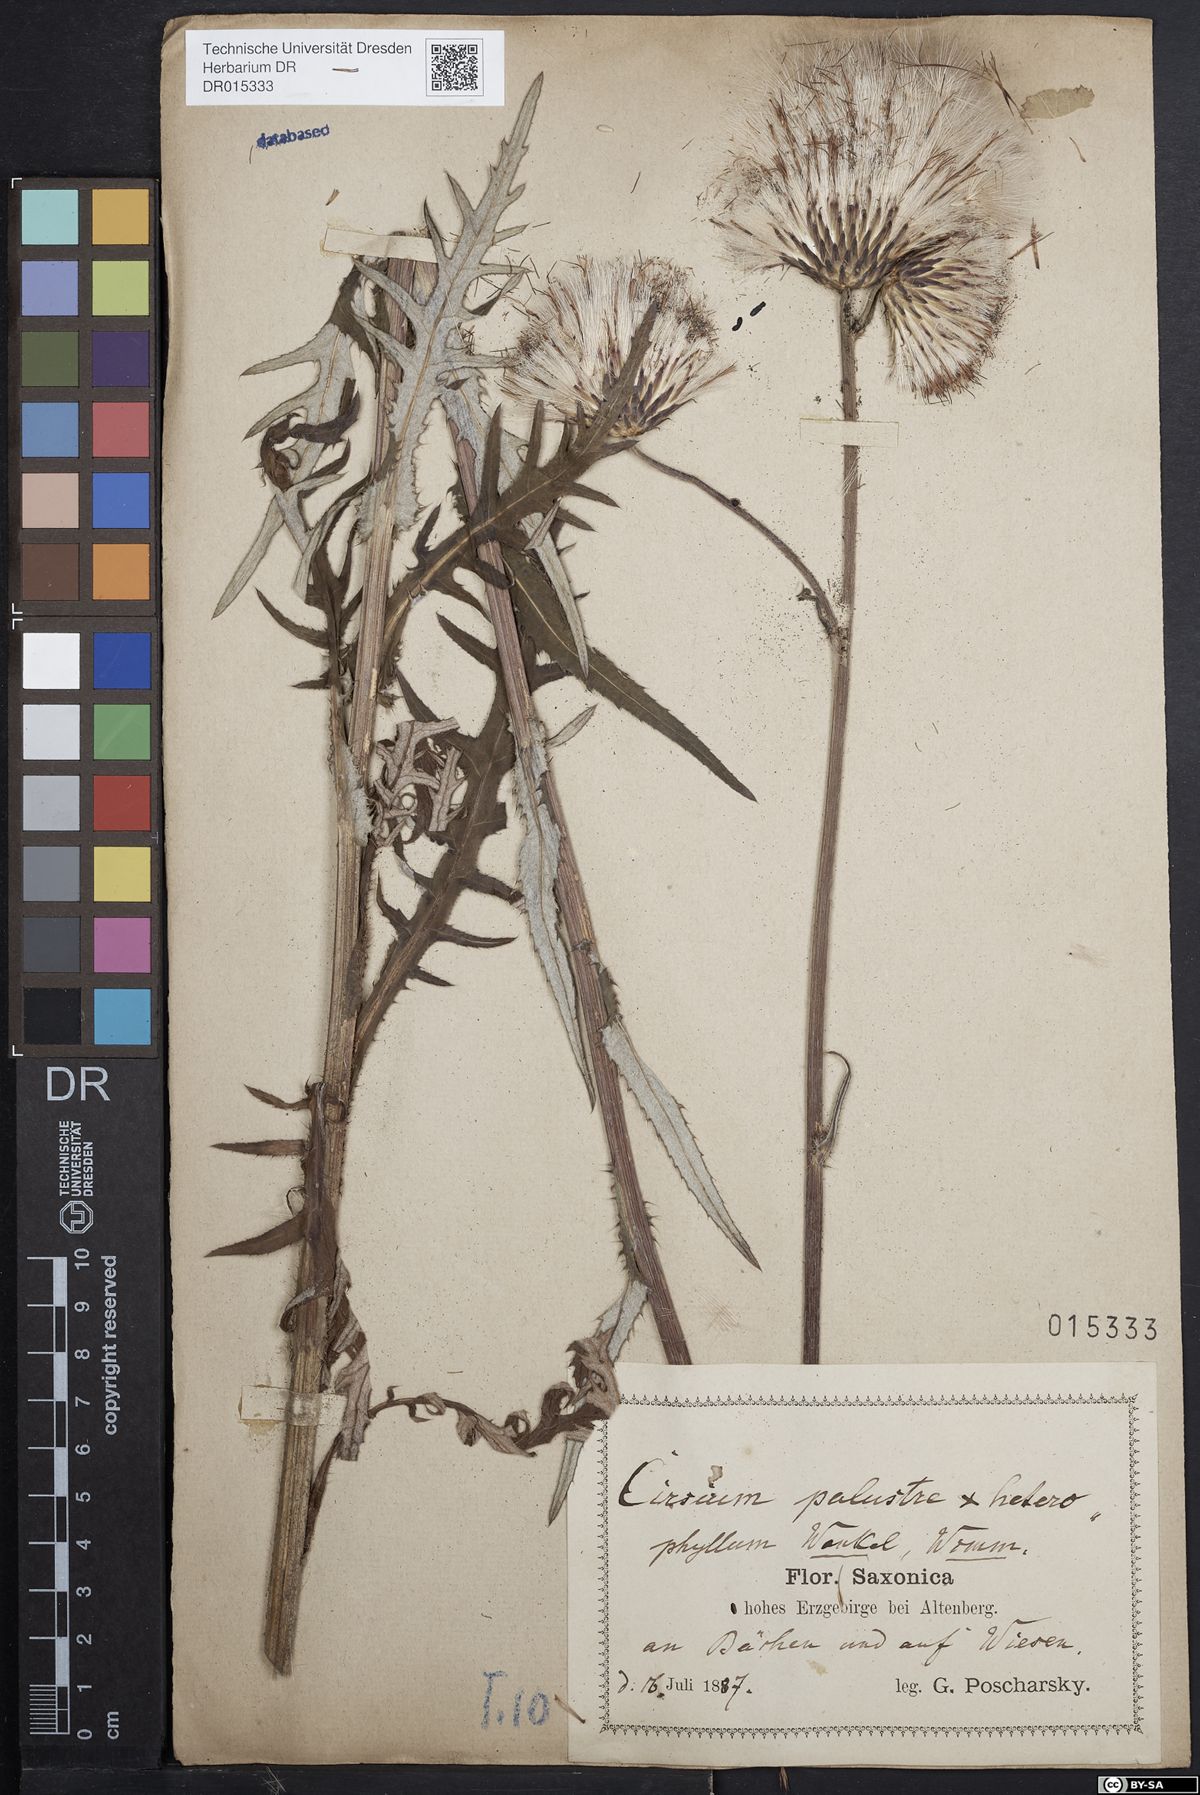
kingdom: Plantae
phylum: Tracheophyta
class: Magnoliopsida
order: Asterales
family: Asteraceae
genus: Cirsium
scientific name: Cirsium wankelii
